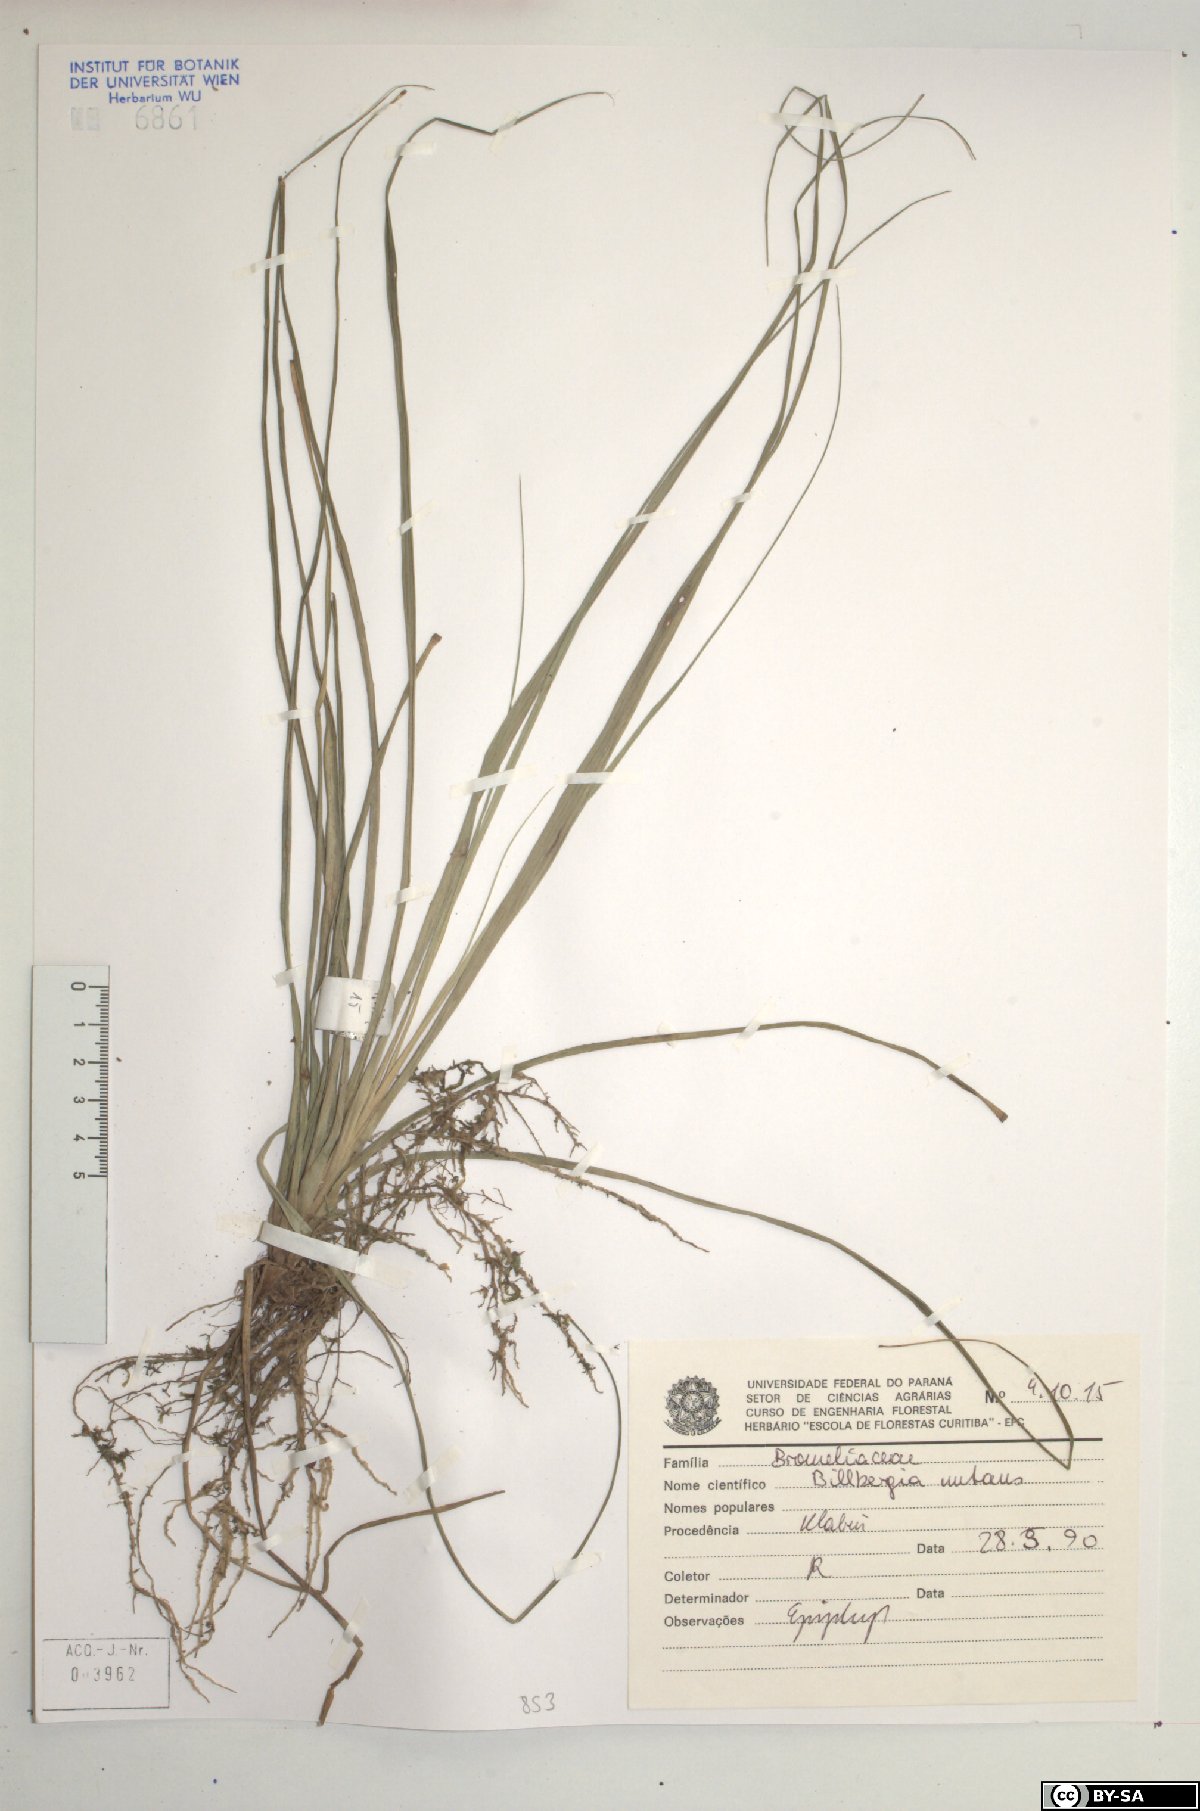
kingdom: Plantae
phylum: Tracheophyta
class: Liliopsida
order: Poales
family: Bromeliaceae
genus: Billbergia
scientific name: Billbergia nutans
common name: Friendship-plant
